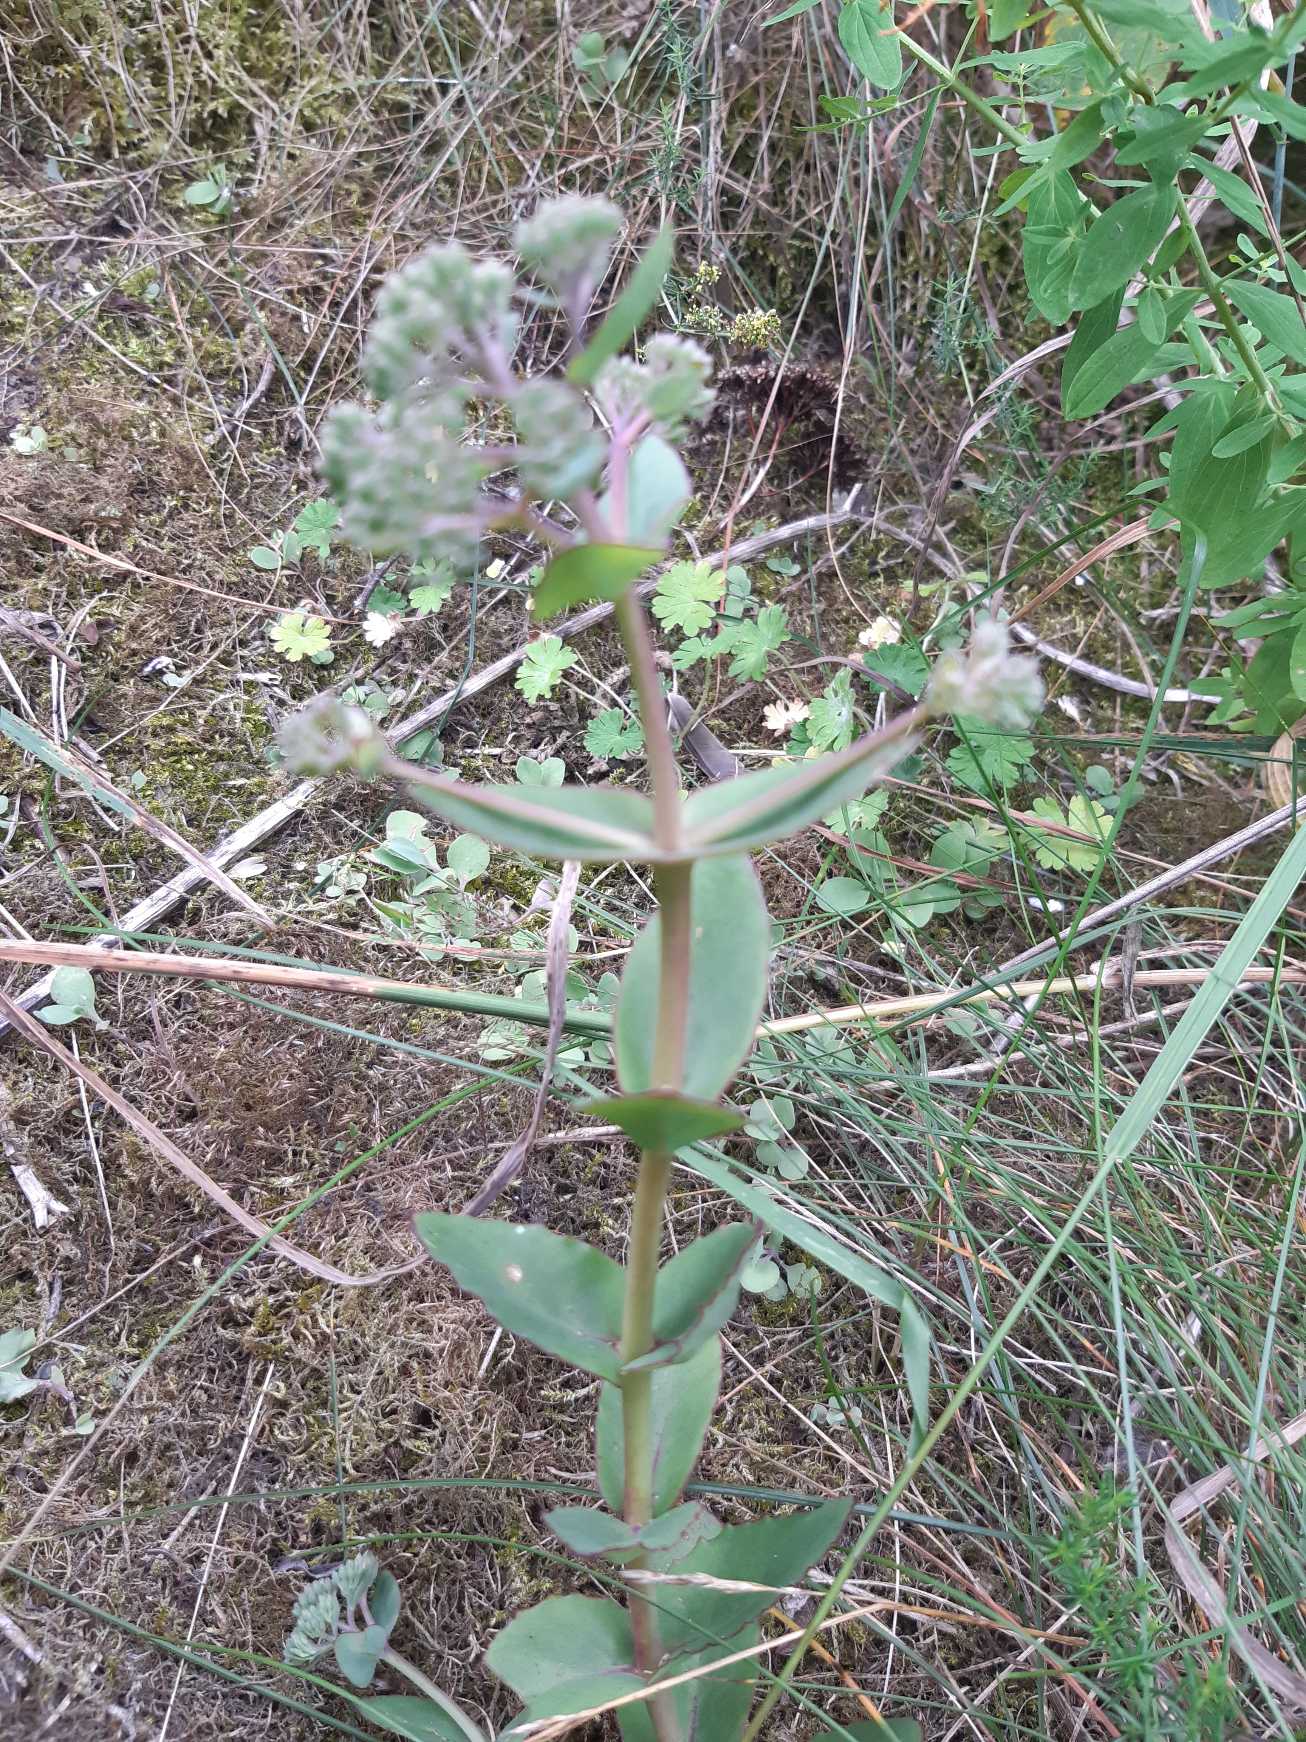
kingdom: Plantae
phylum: Tracheophyta
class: Magnoliopsida
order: Saxifragales
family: Crassulaceae
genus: Hylotelephium
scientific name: Hylotelephium maximum
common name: Almindelig sankthansurt
